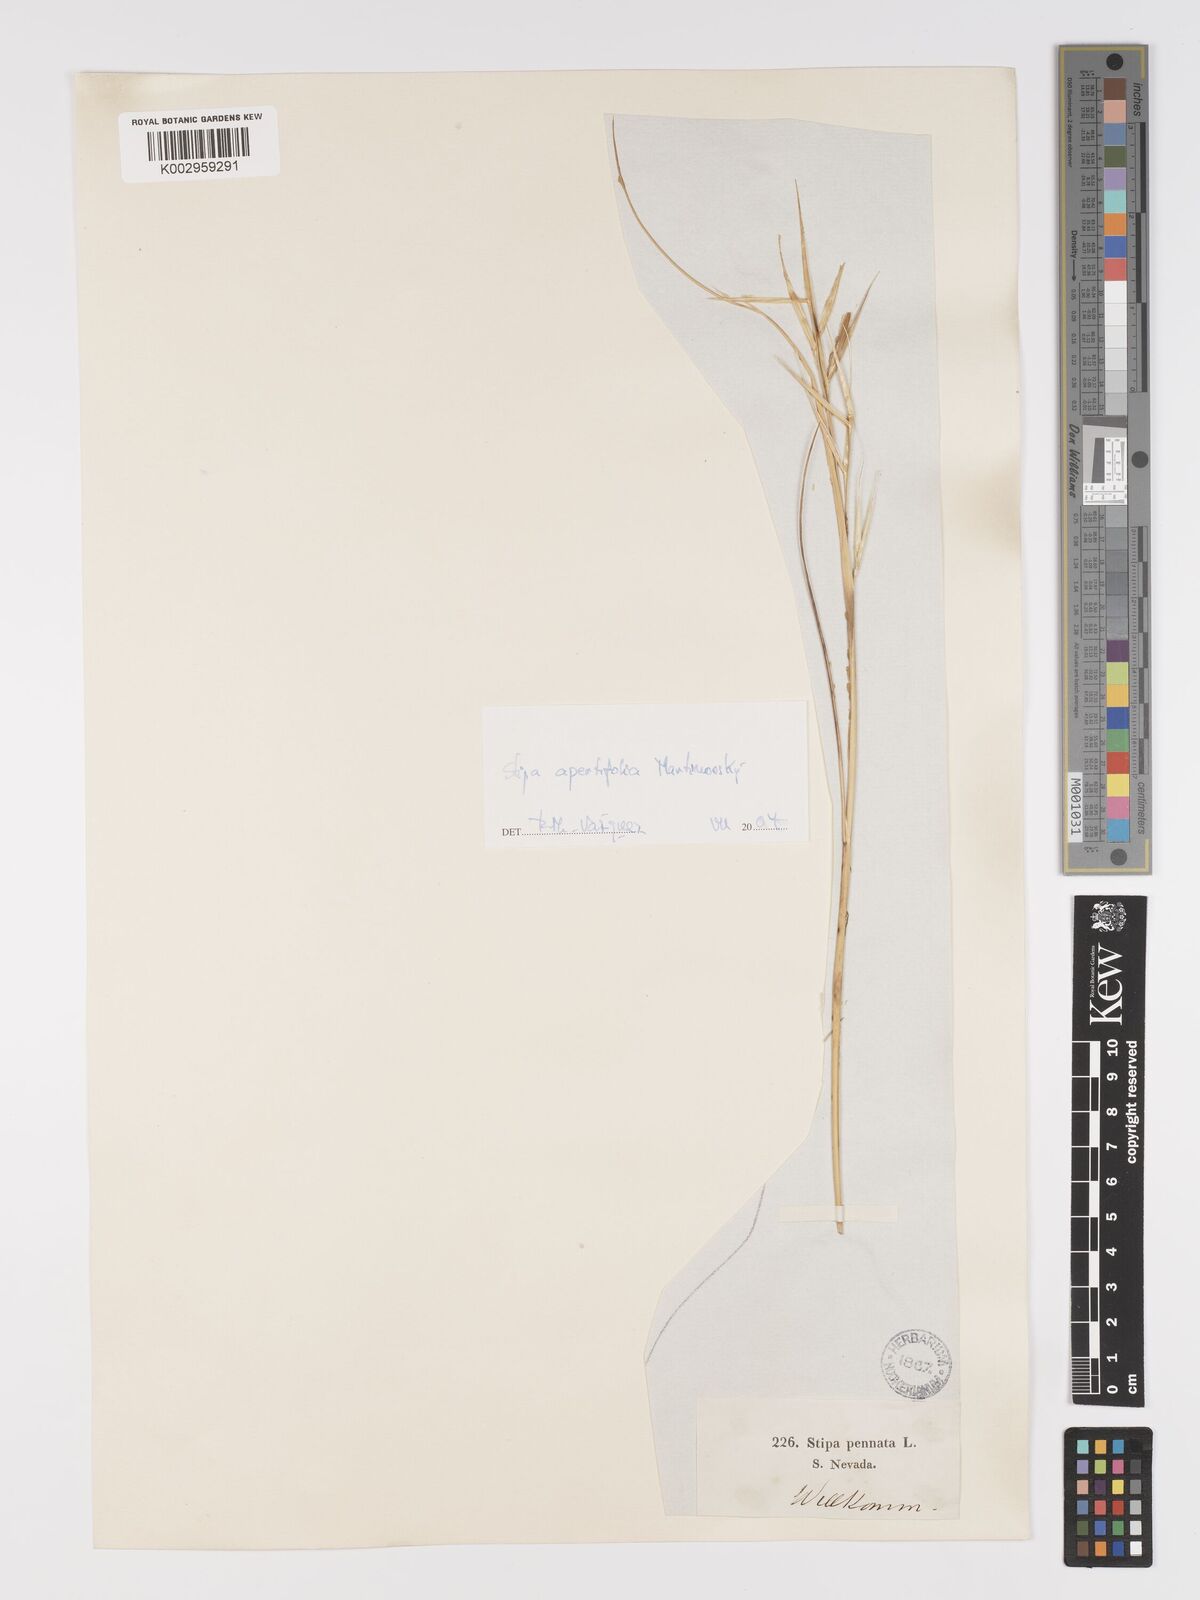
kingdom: Plantae
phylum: Tracheophyta
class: Liliopsida
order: Poales
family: Poaceae
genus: Stipa
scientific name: Stipa apertifolia
